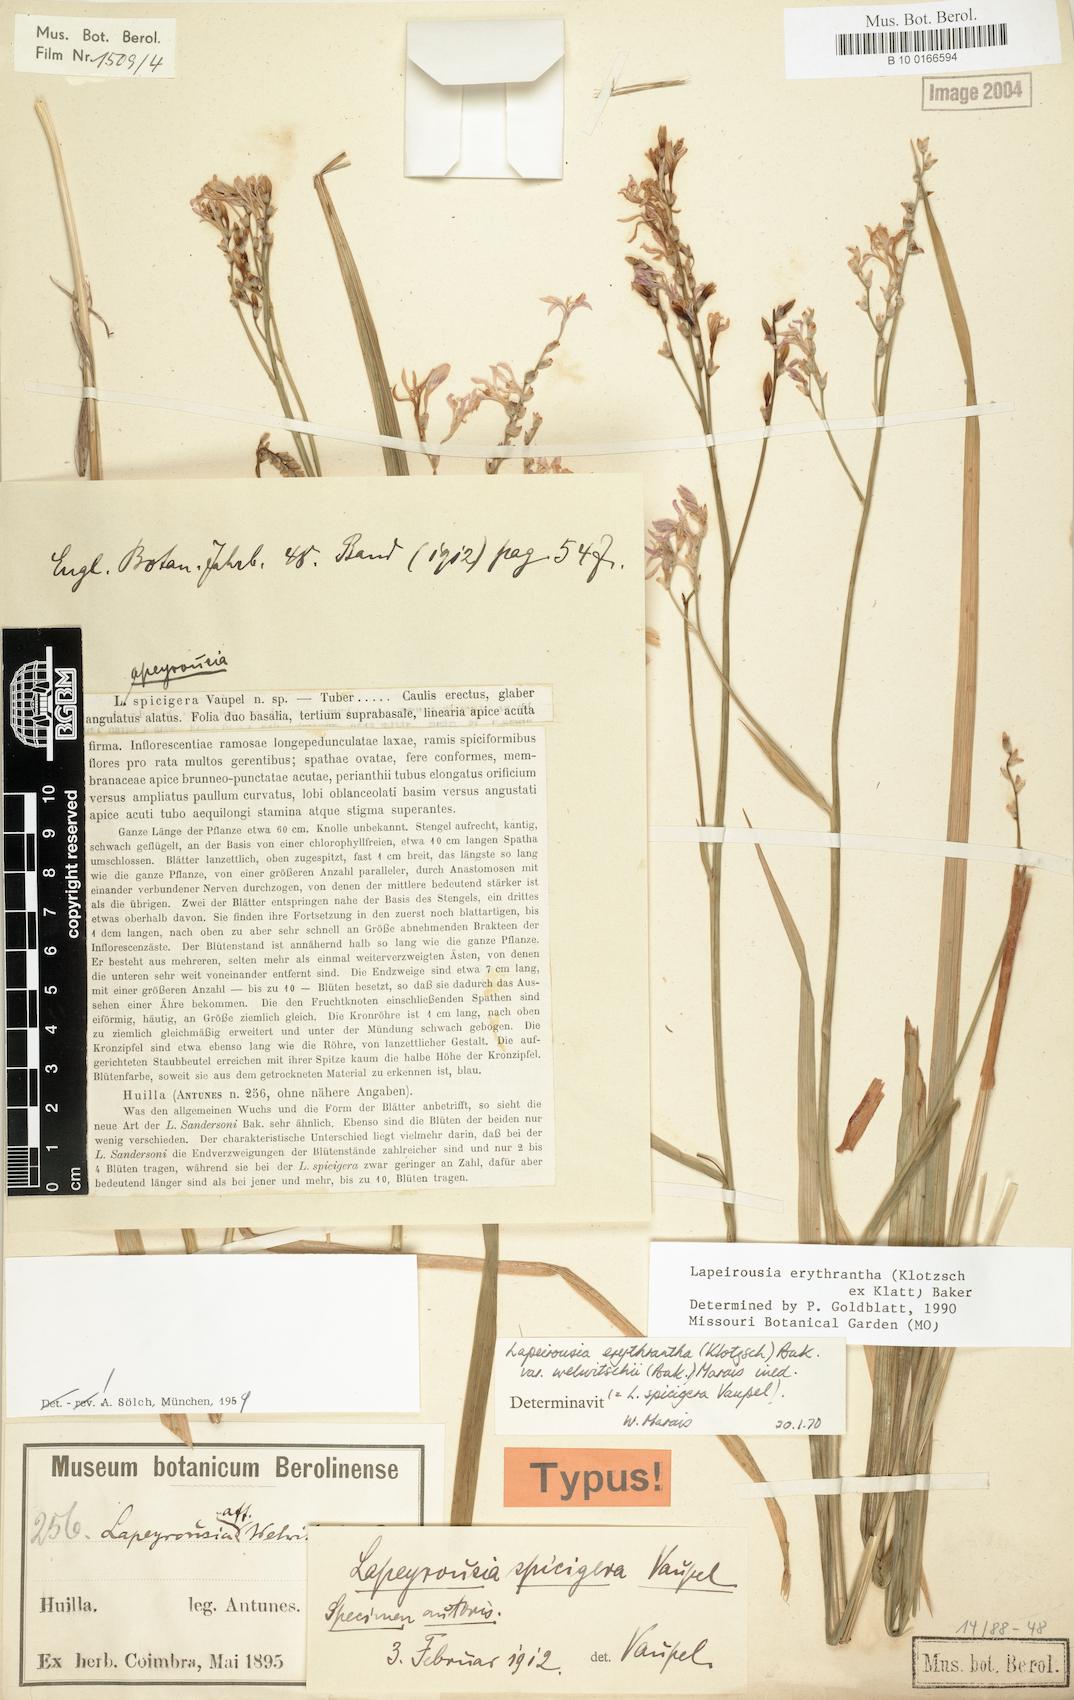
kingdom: Plantae
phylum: Tracheophyta
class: Liliopsida
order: Asparagales
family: Iridaceae
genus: Afrosolen
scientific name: Afrosolen erythranthus
